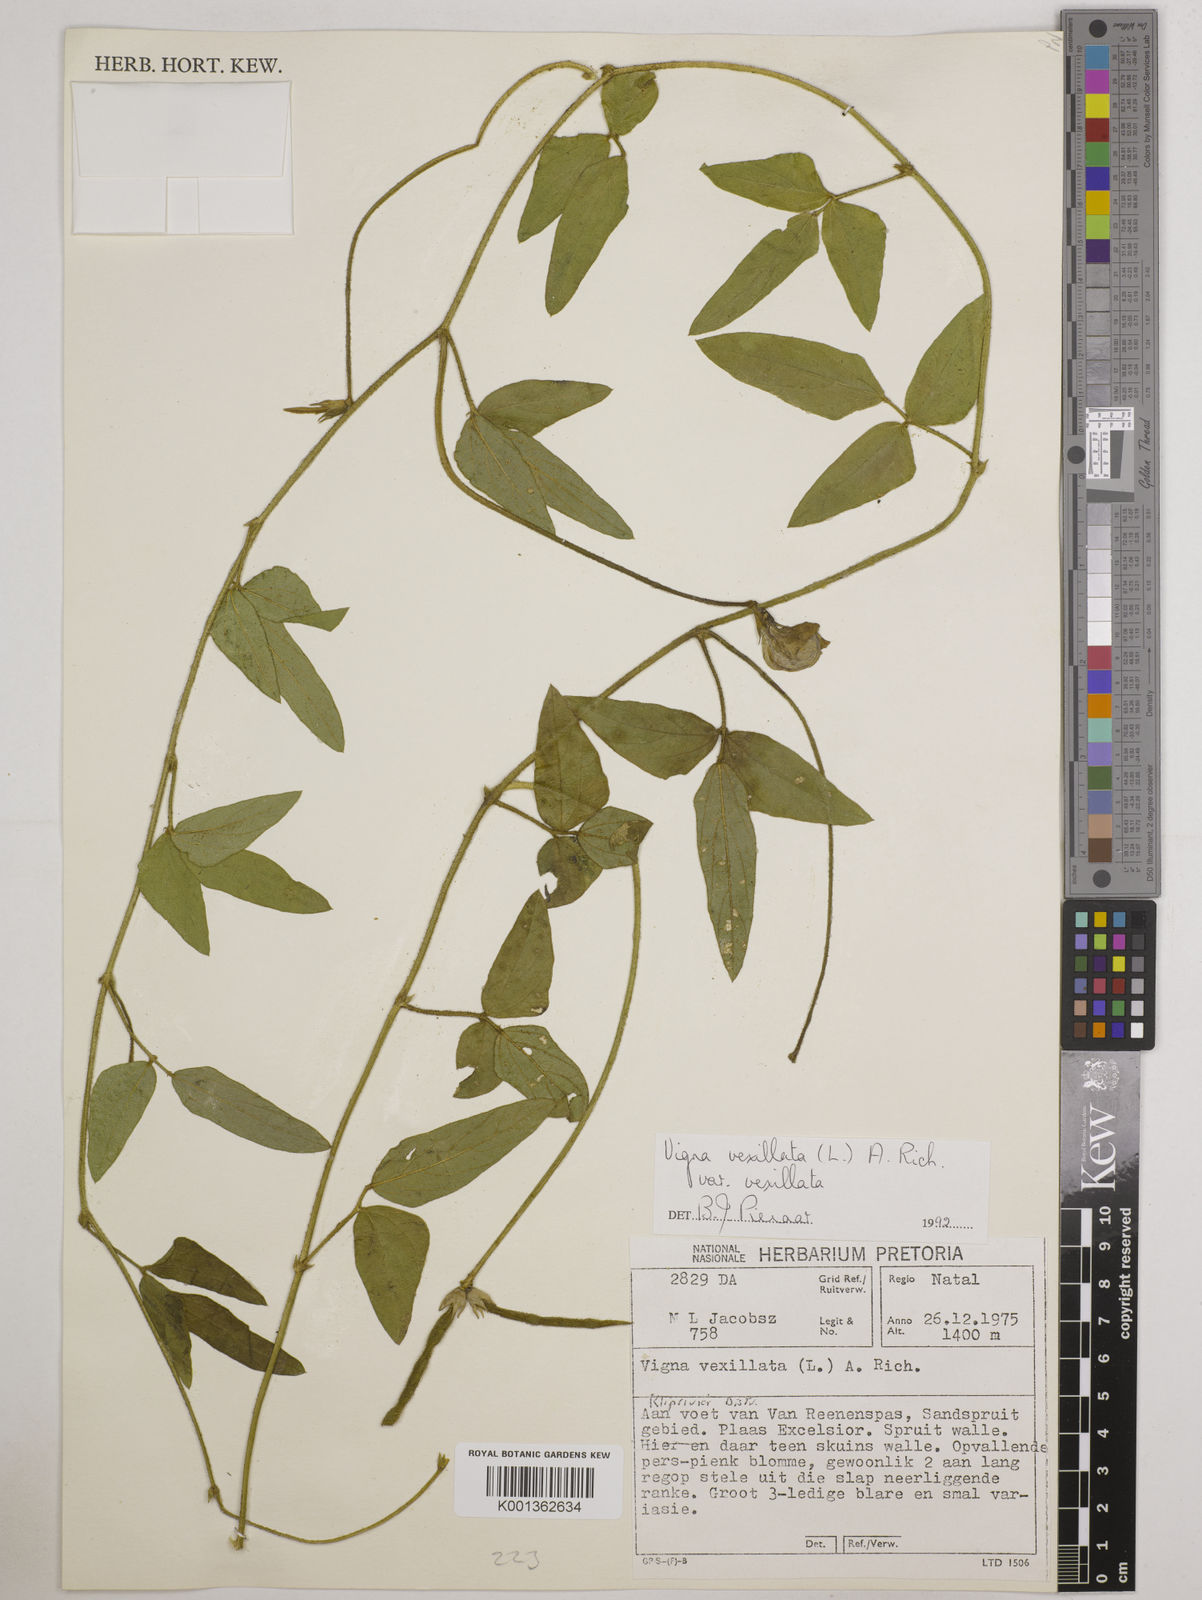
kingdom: Plantae
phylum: Tracheophyta
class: Magnoliopsida
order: Fabales
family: Fabaceae
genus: Vigna
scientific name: Vigna vexillata
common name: Zombi pea
